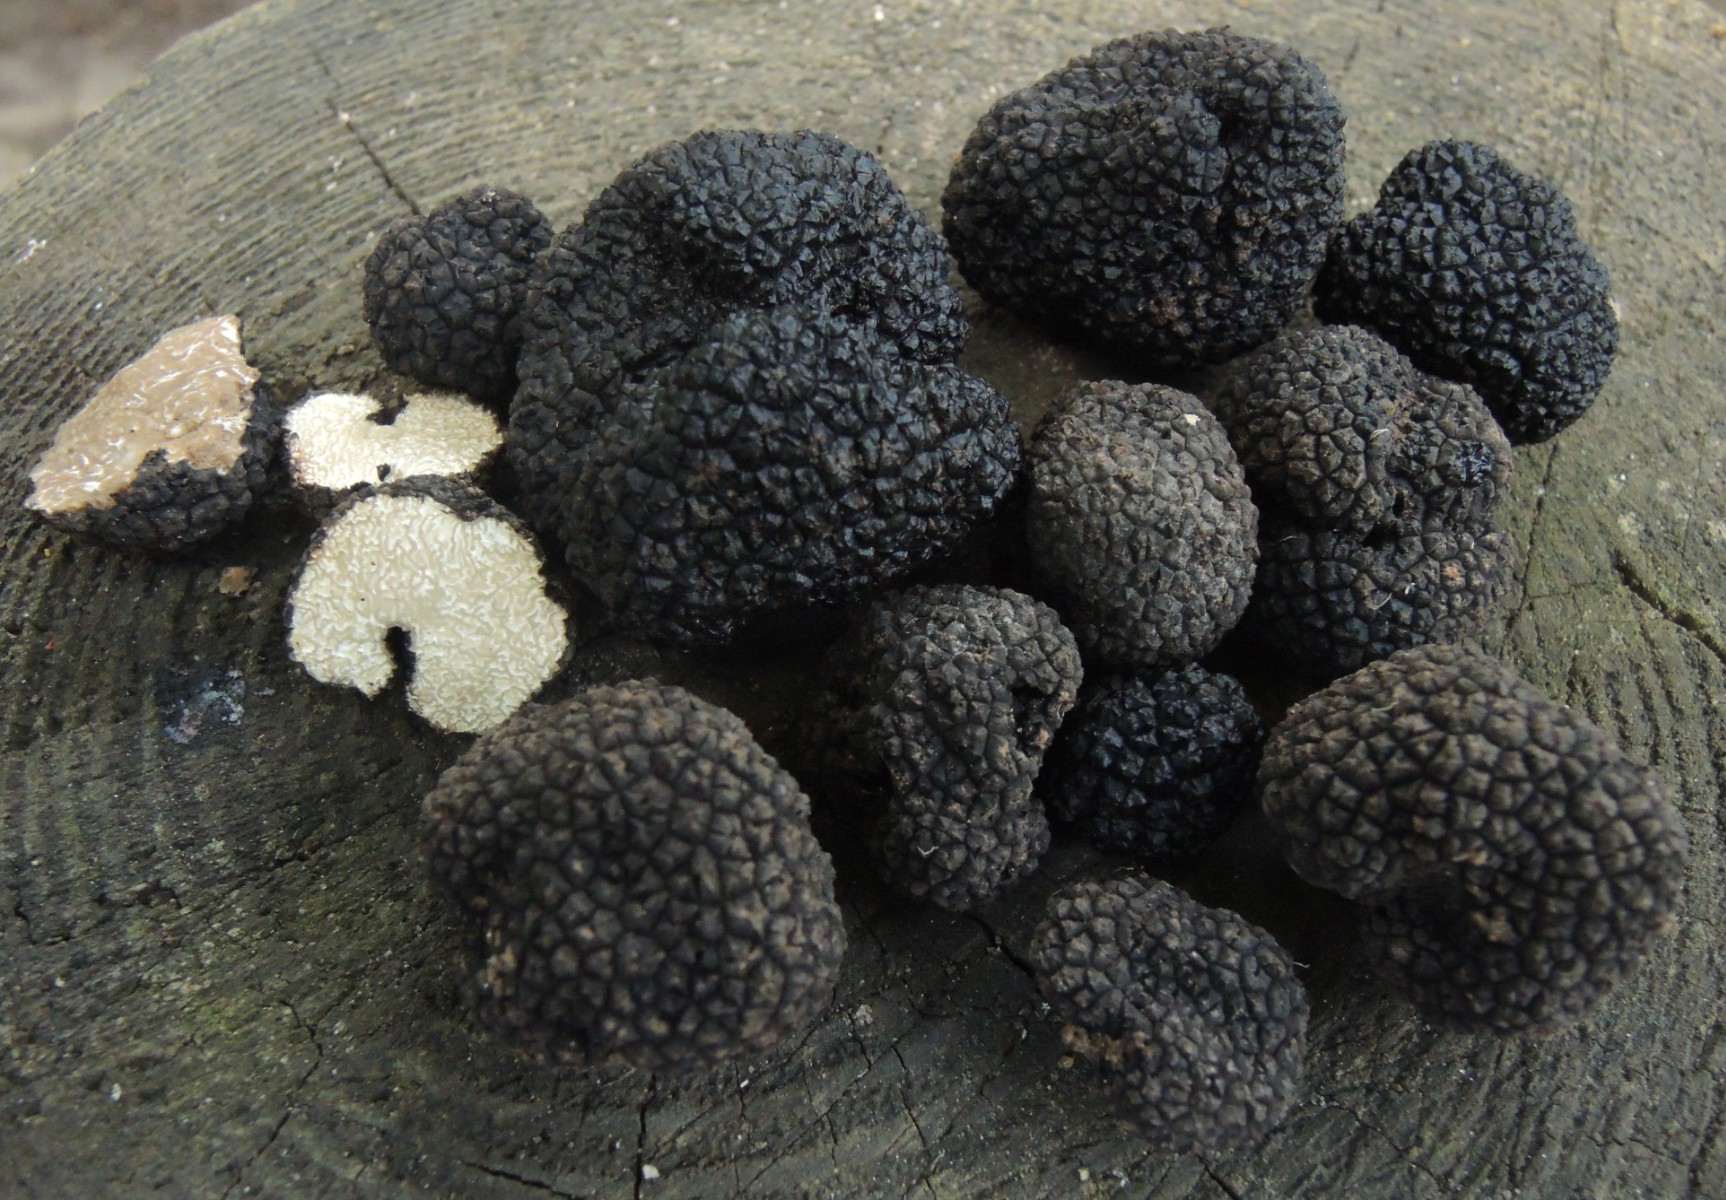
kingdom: Fungi
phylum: Ascomycota
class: Pezizomycetes
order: Pezizales
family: Tuberaceae
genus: Tuber
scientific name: Tuber mesentericum
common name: tjære-trøffel
